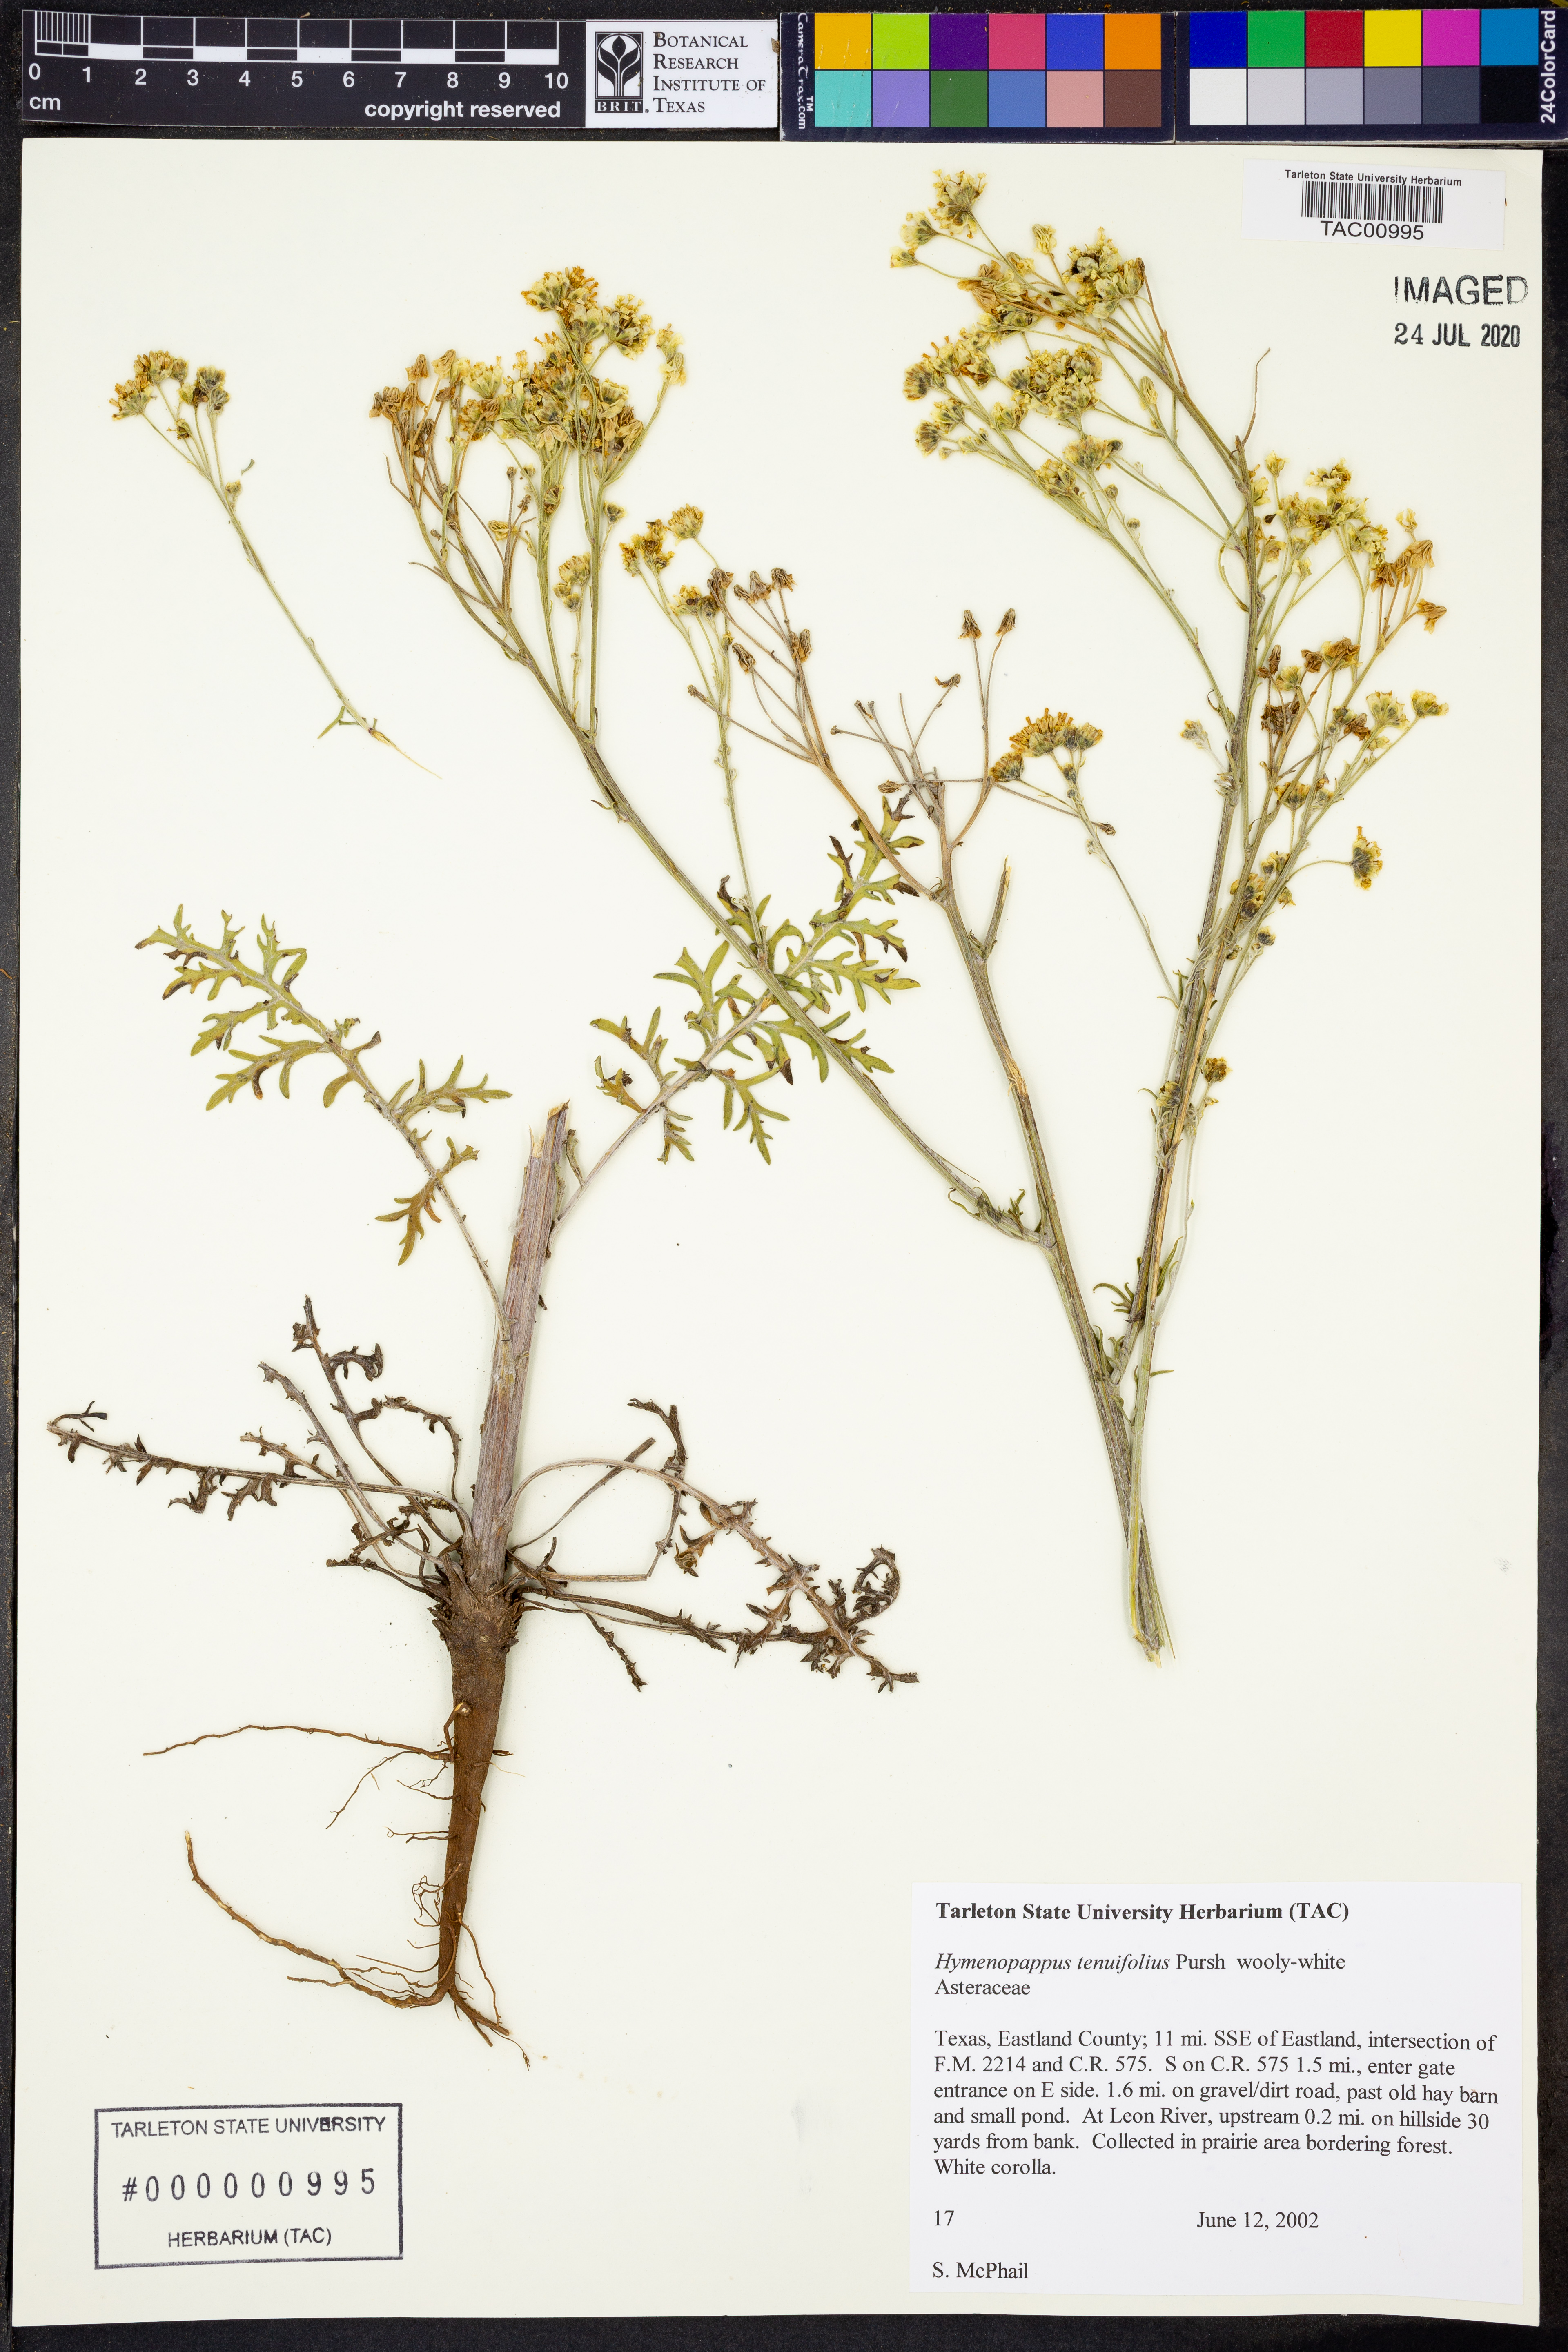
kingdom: Plantae
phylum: Tracheophyta
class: Magnoliopsida
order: Asterales
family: Asteraceae
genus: Hymenopappus
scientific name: Hymenopappus tenuifolius
